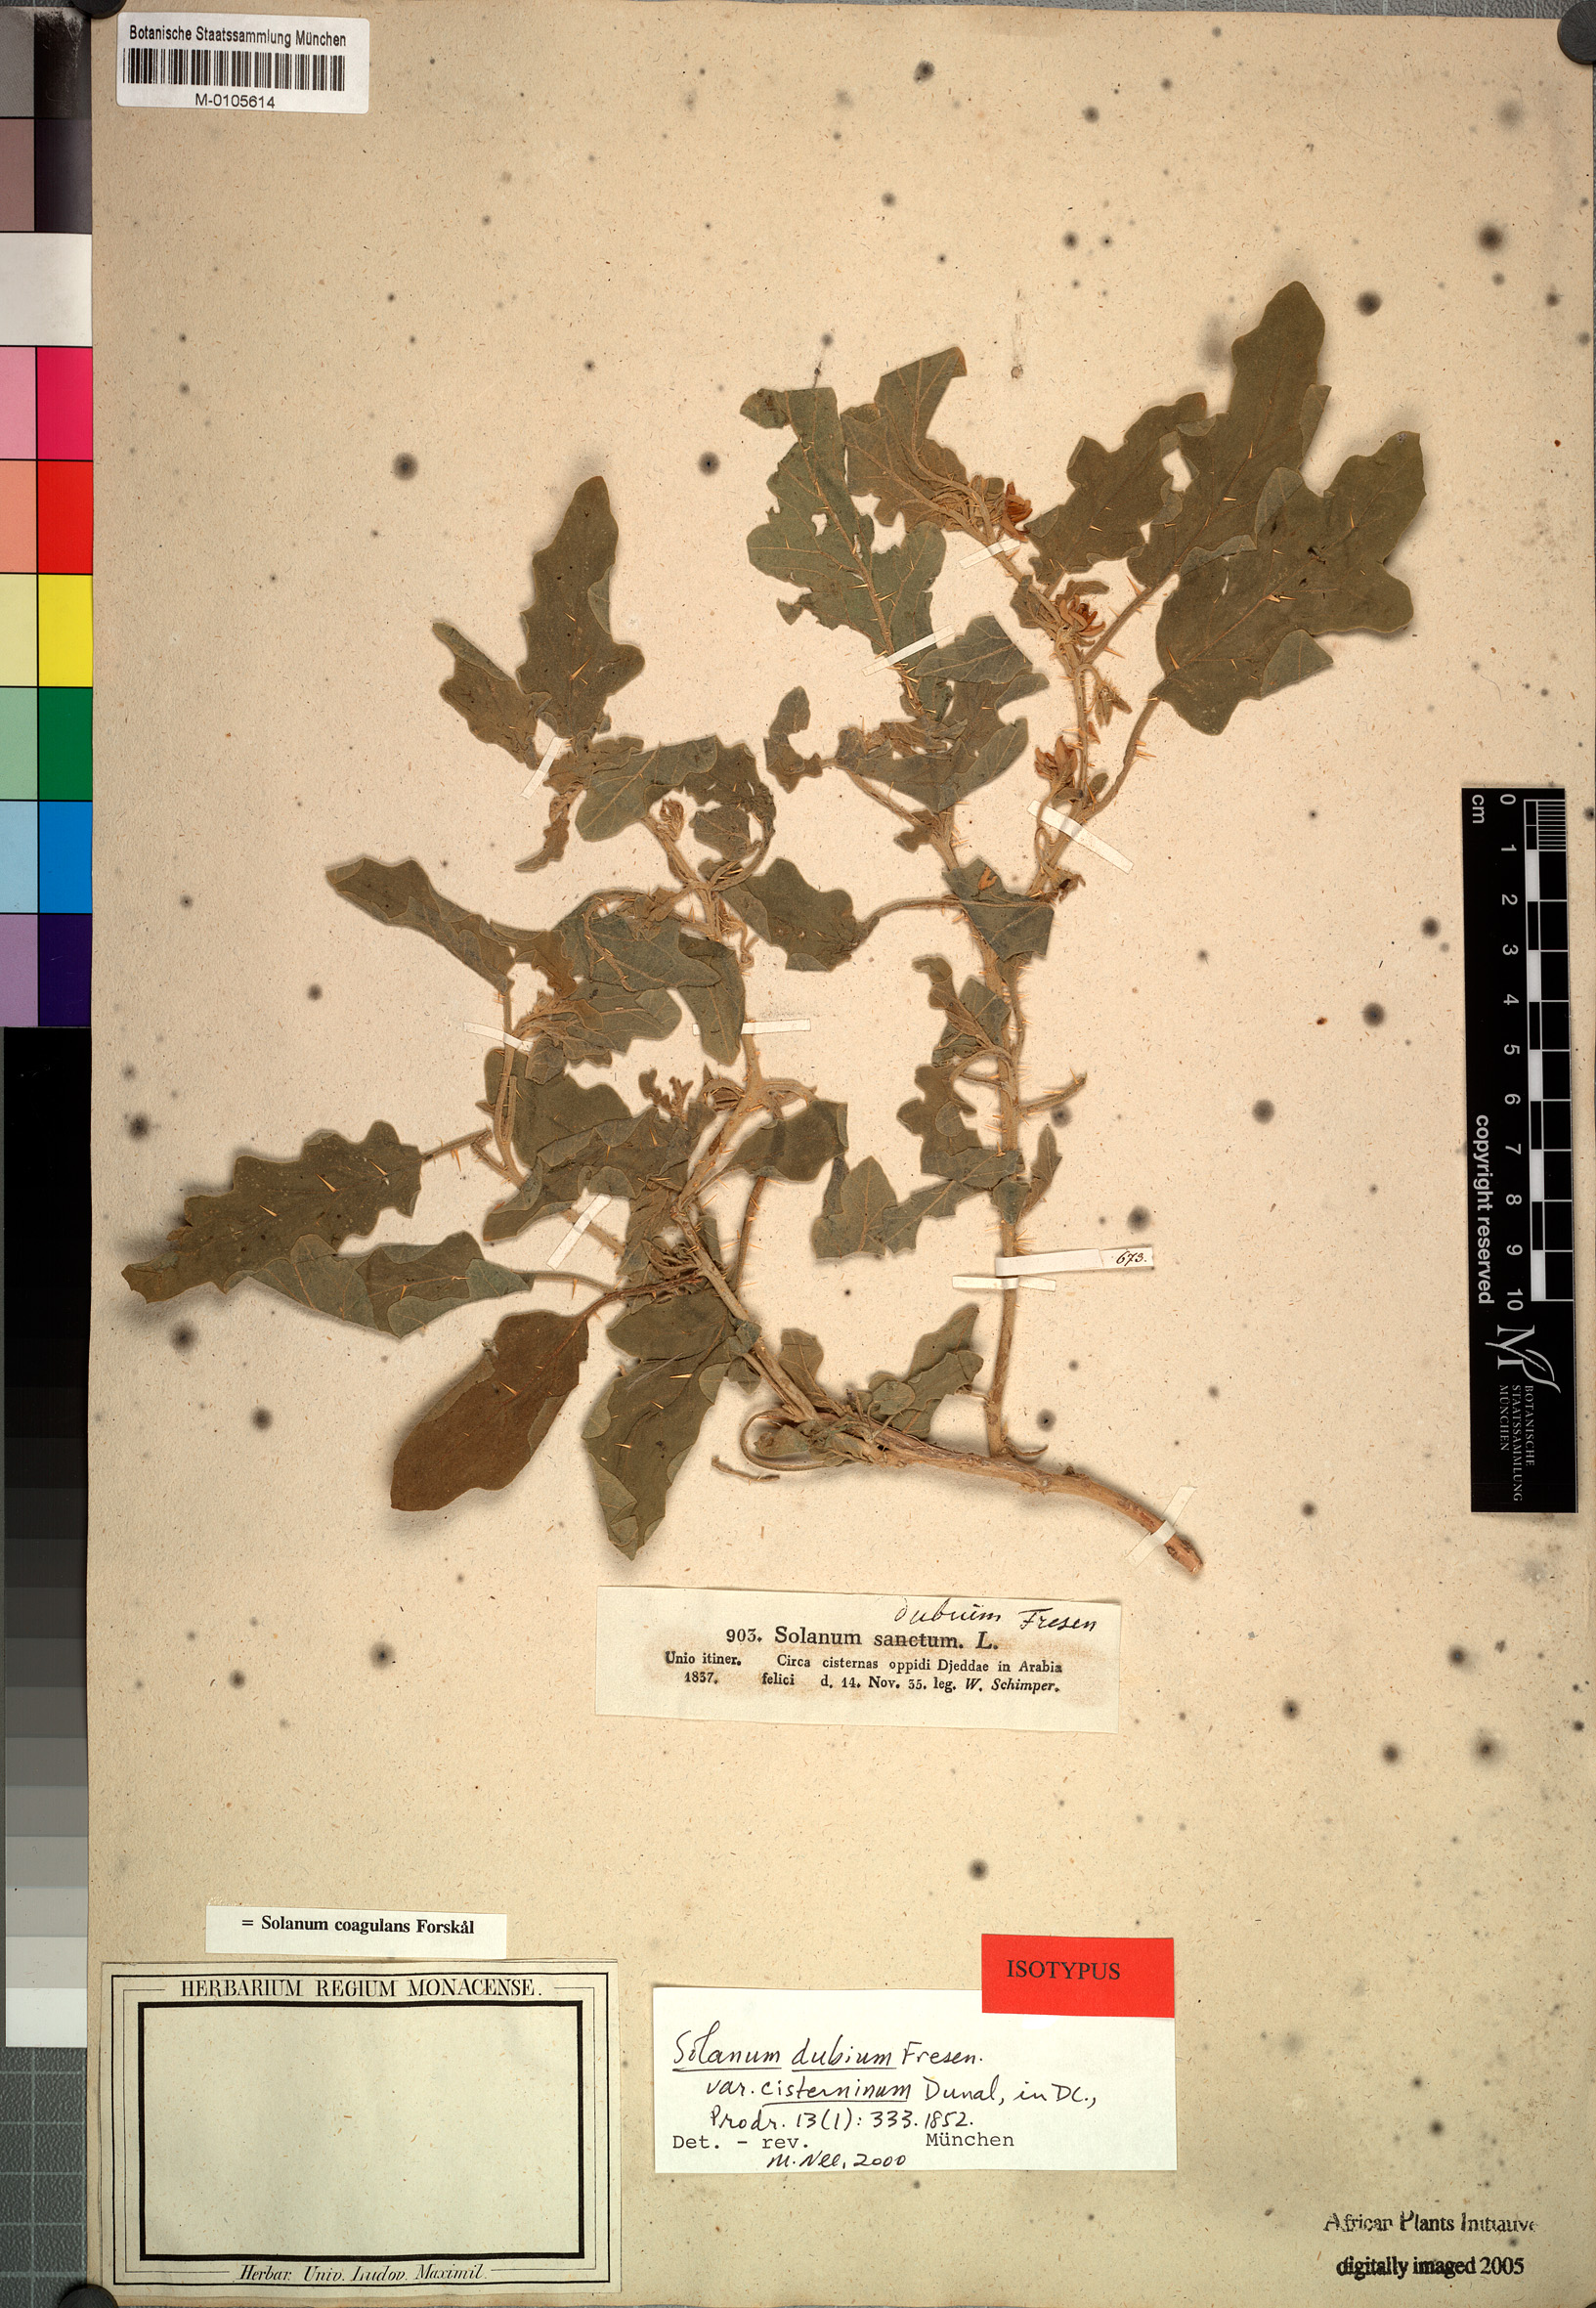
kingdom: Plantae
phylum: Tracheophyta
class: Magnoliopsida
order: Solanales
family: Solanaceae
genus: Solanum
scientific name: Solanum coagulans
